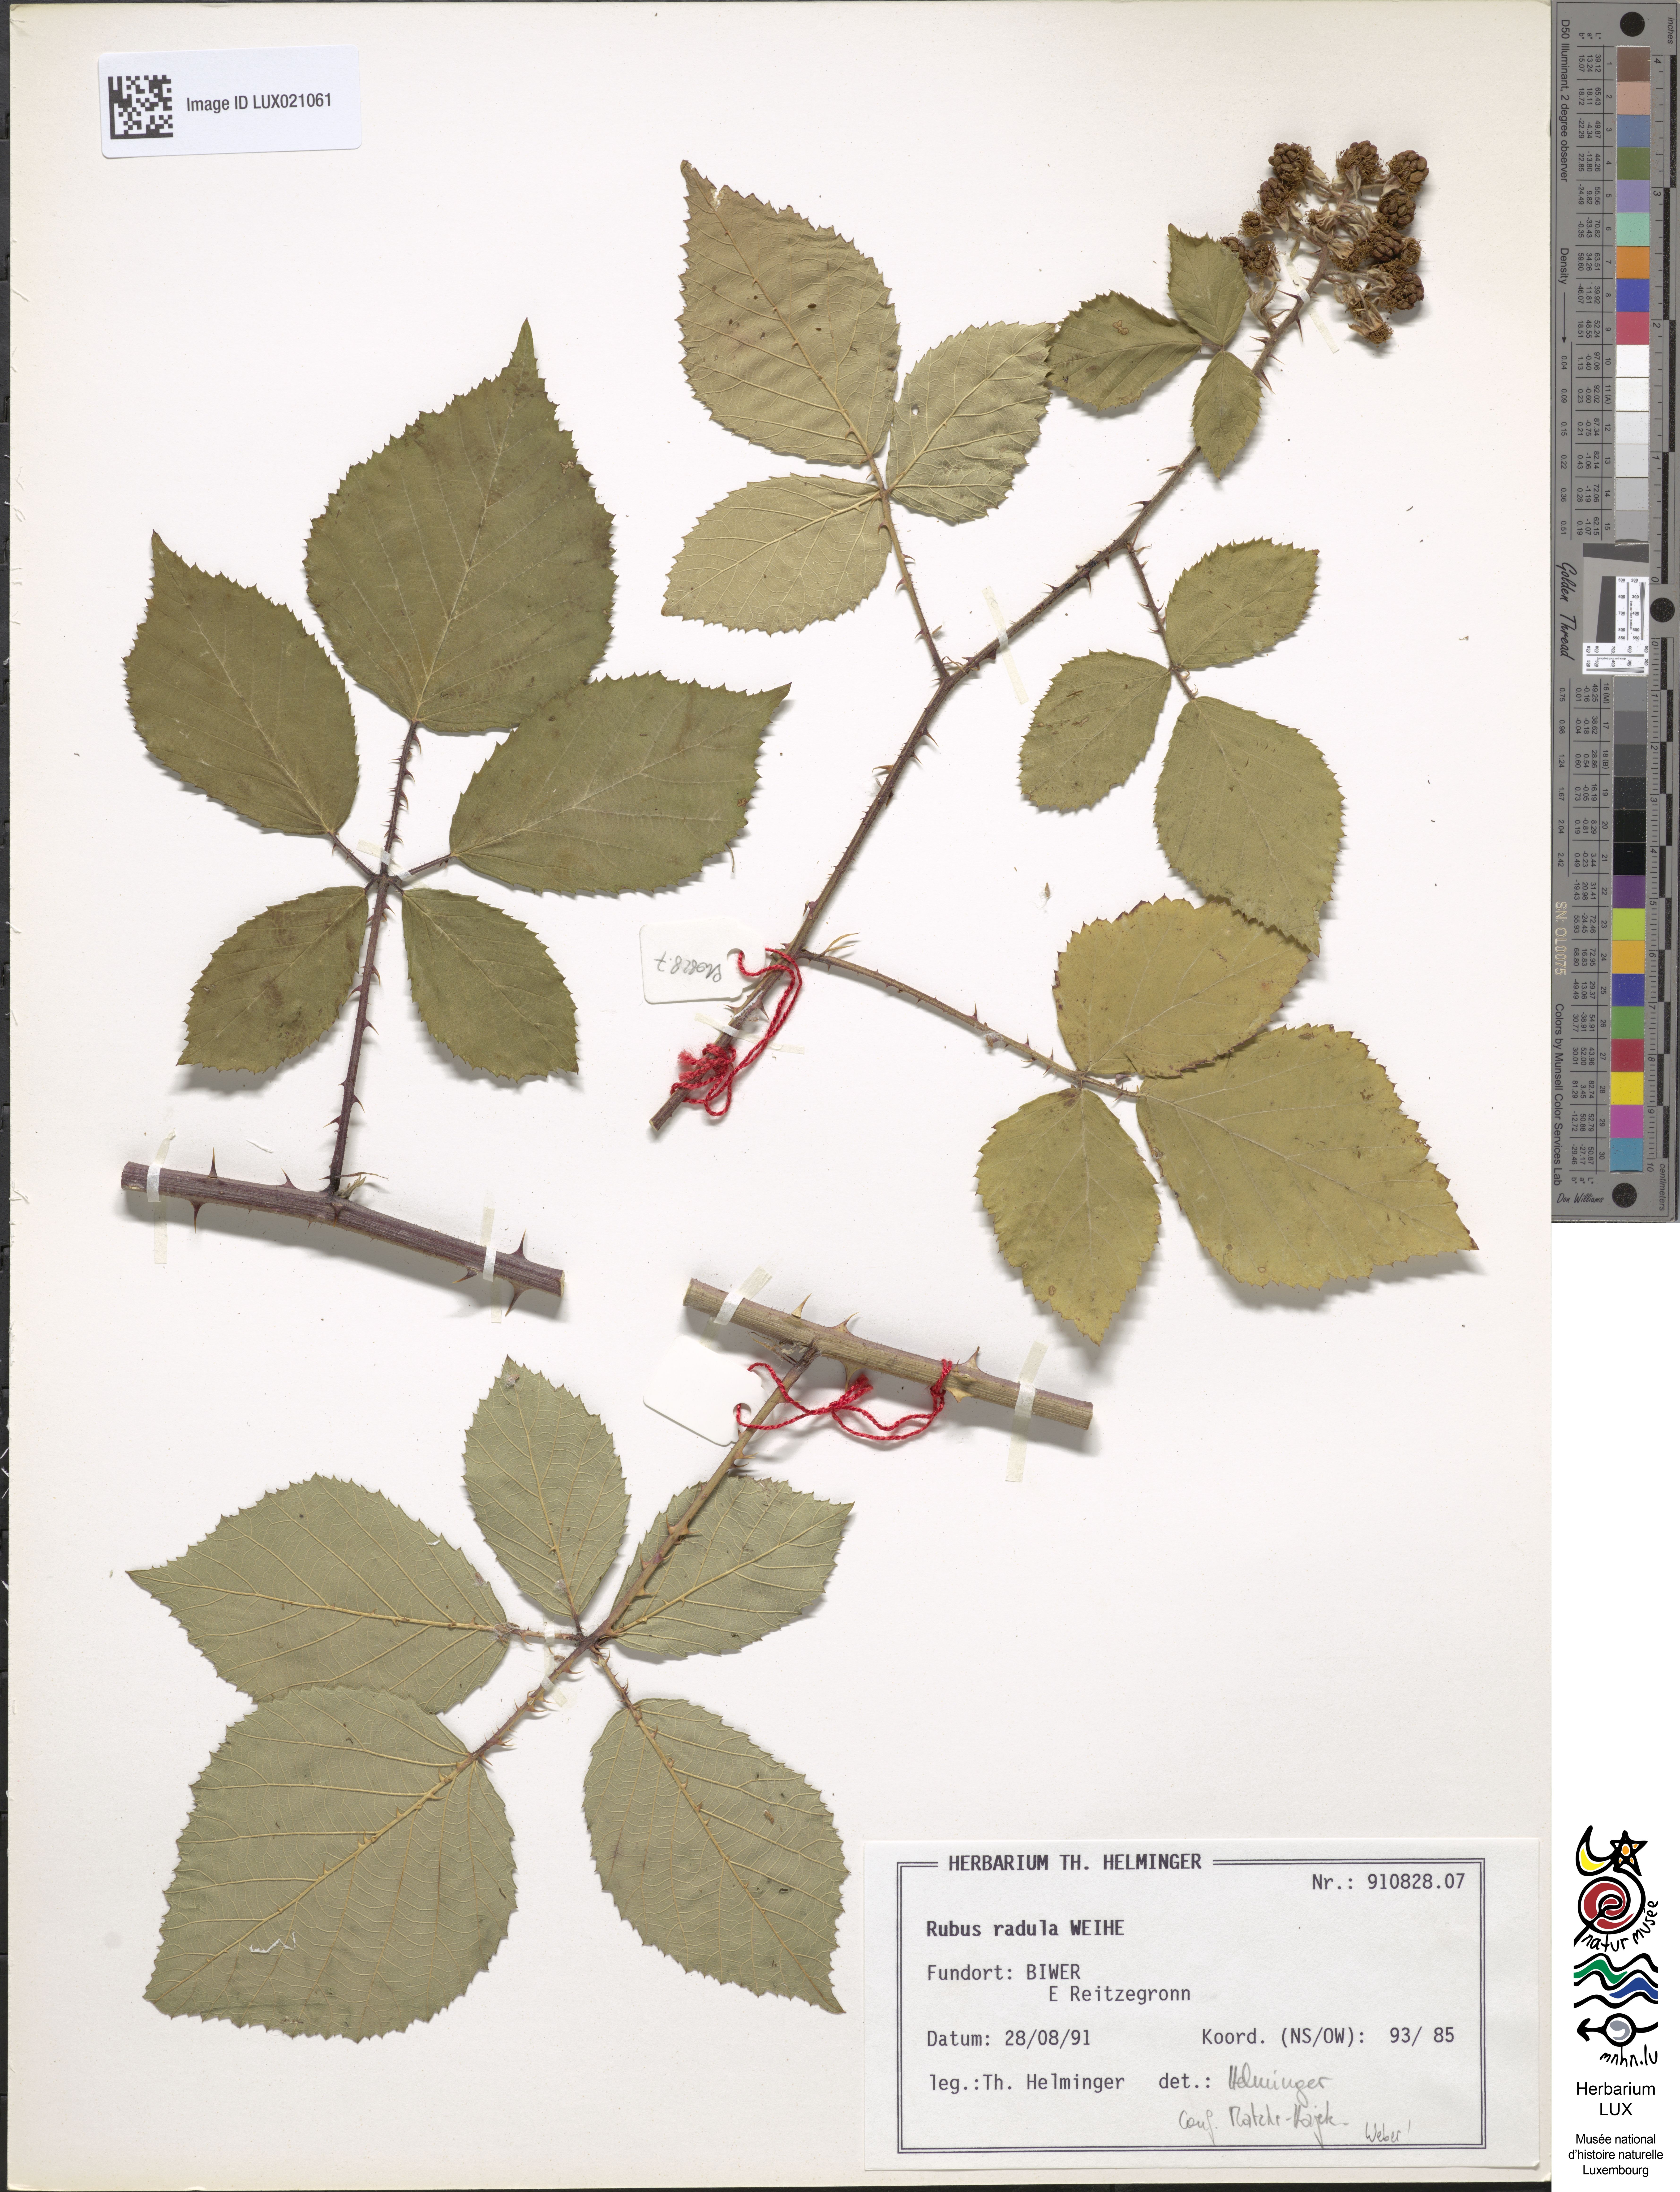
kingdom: Plantae
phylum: Tracheophyta
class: Magnoliopsida
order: Rosales
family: Rosaceae
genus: Rubus
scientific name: Rubus radula
